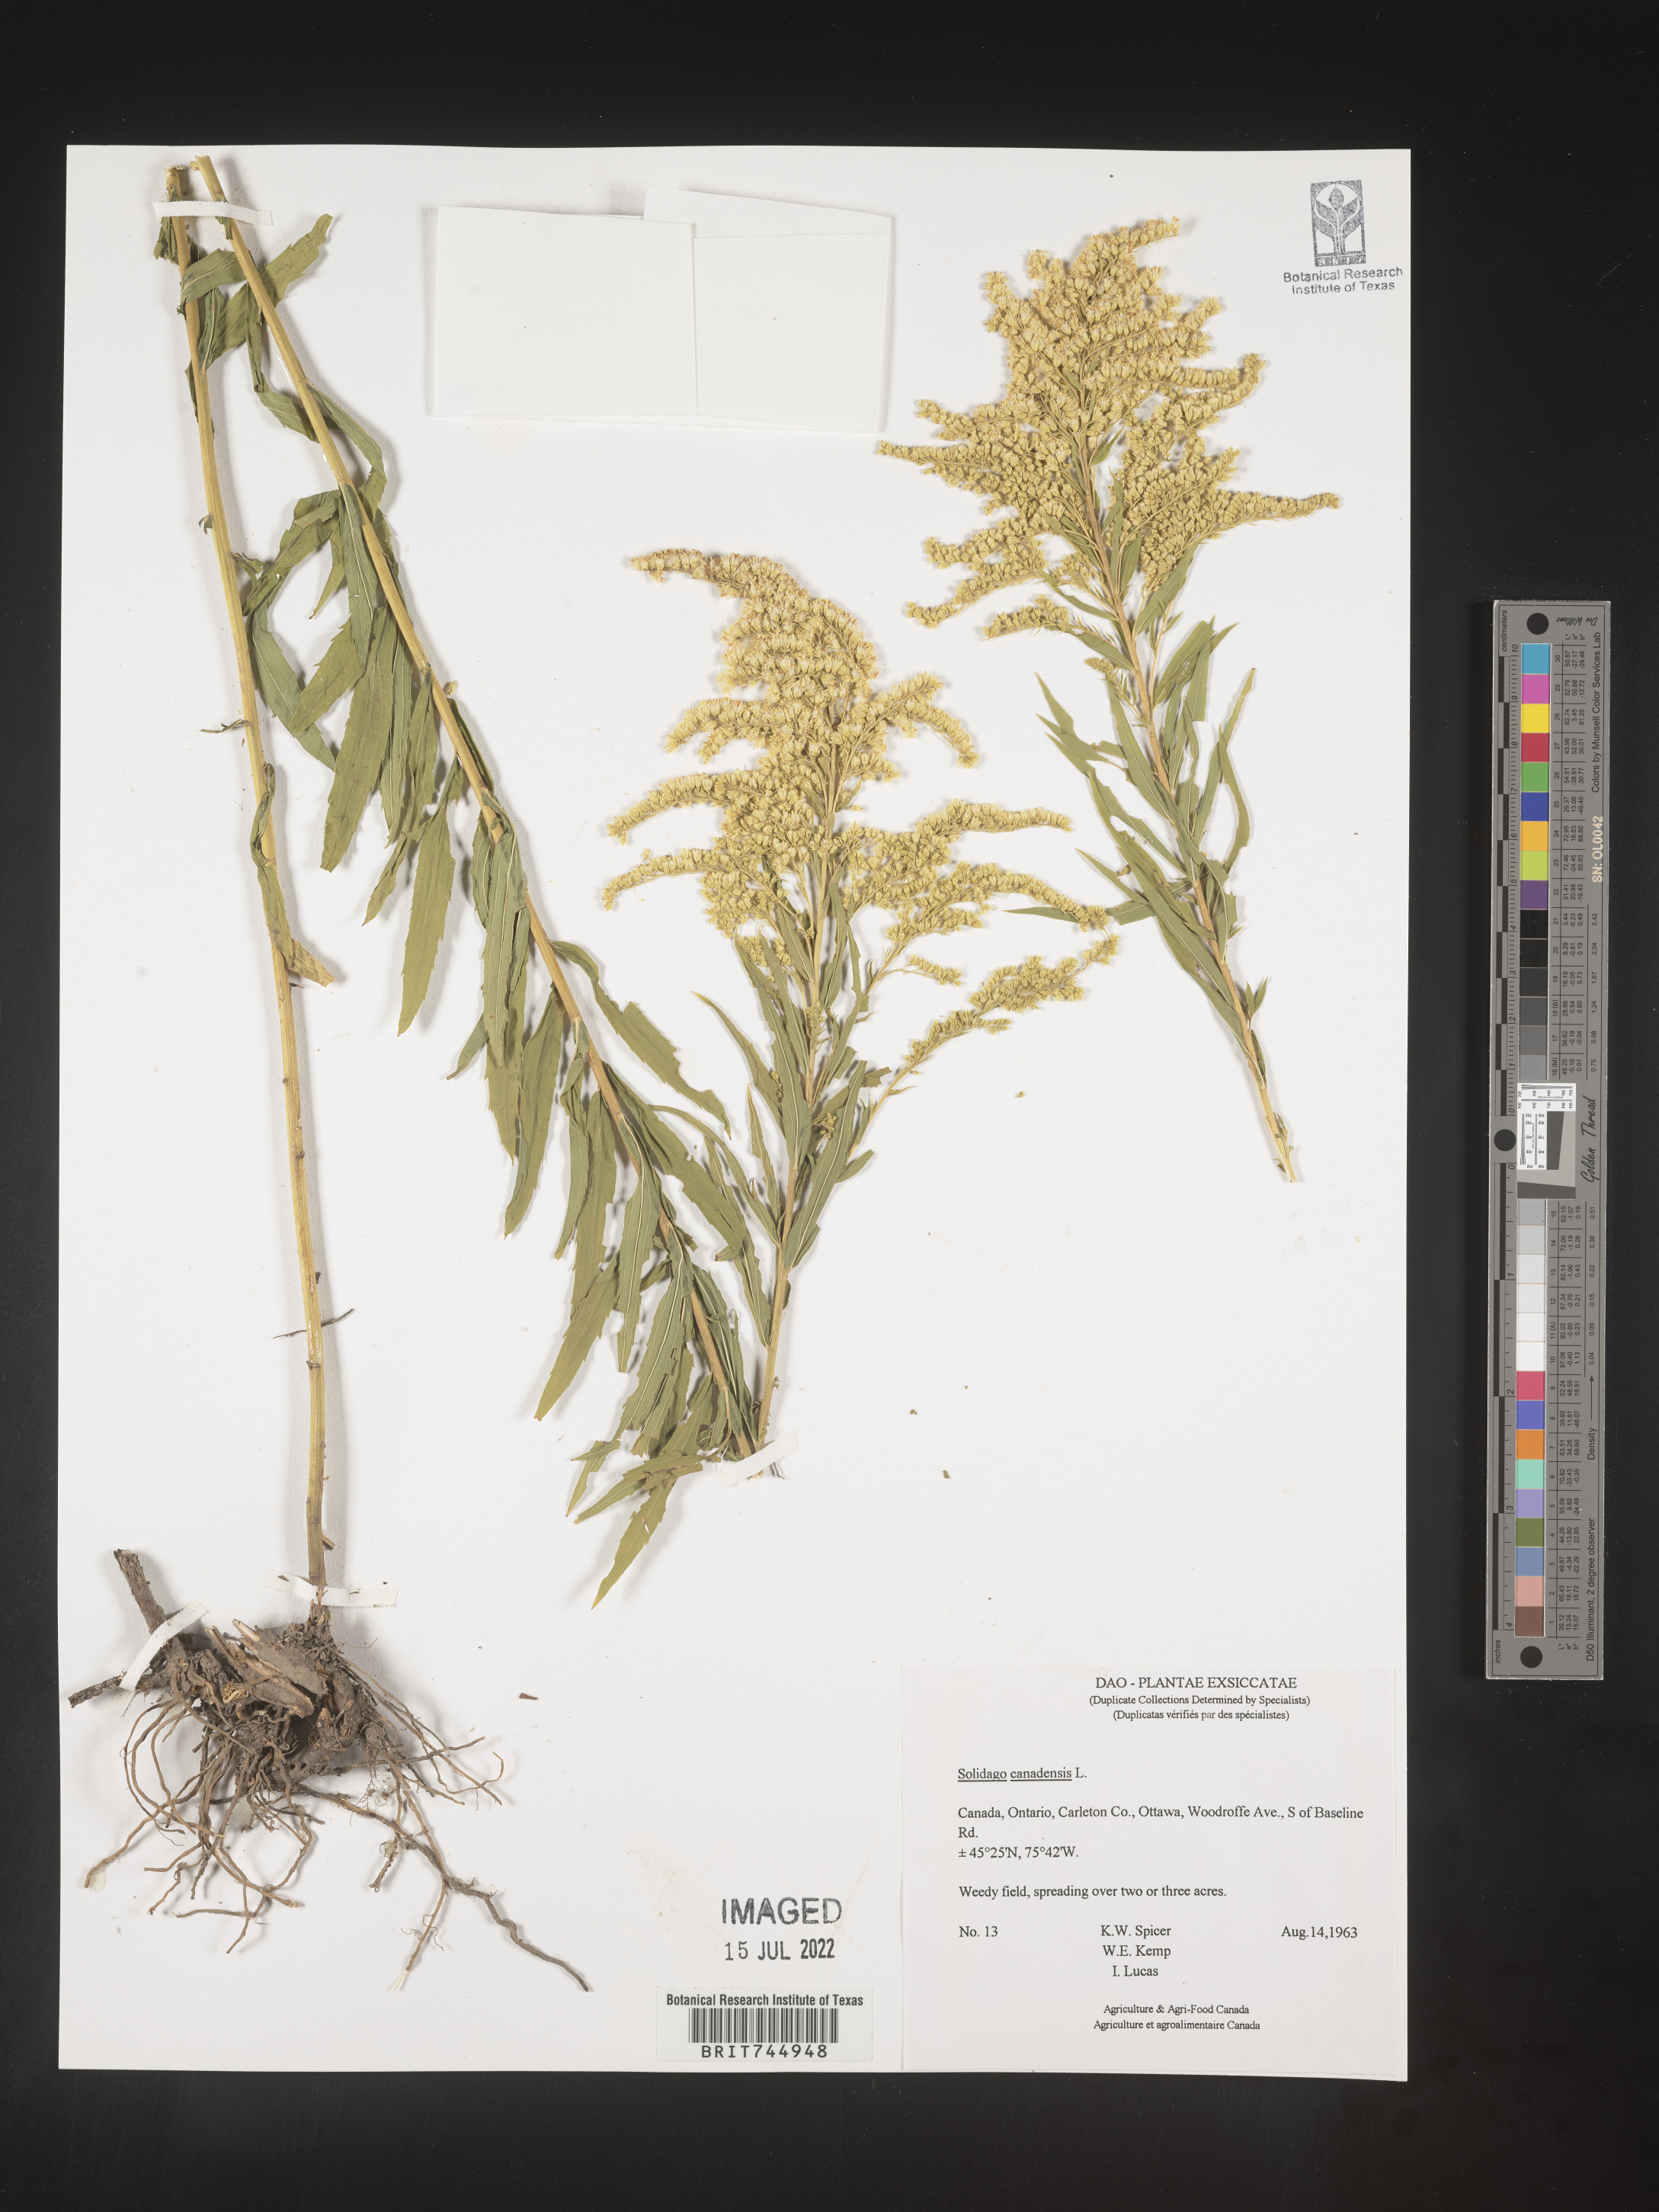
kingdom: Plantae
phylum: Tracheophyta
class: Magnoliopsida
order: Asterales
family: Asteraceae
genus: Solidago
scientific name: Solidago canadensis
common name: Canada goldenrod
